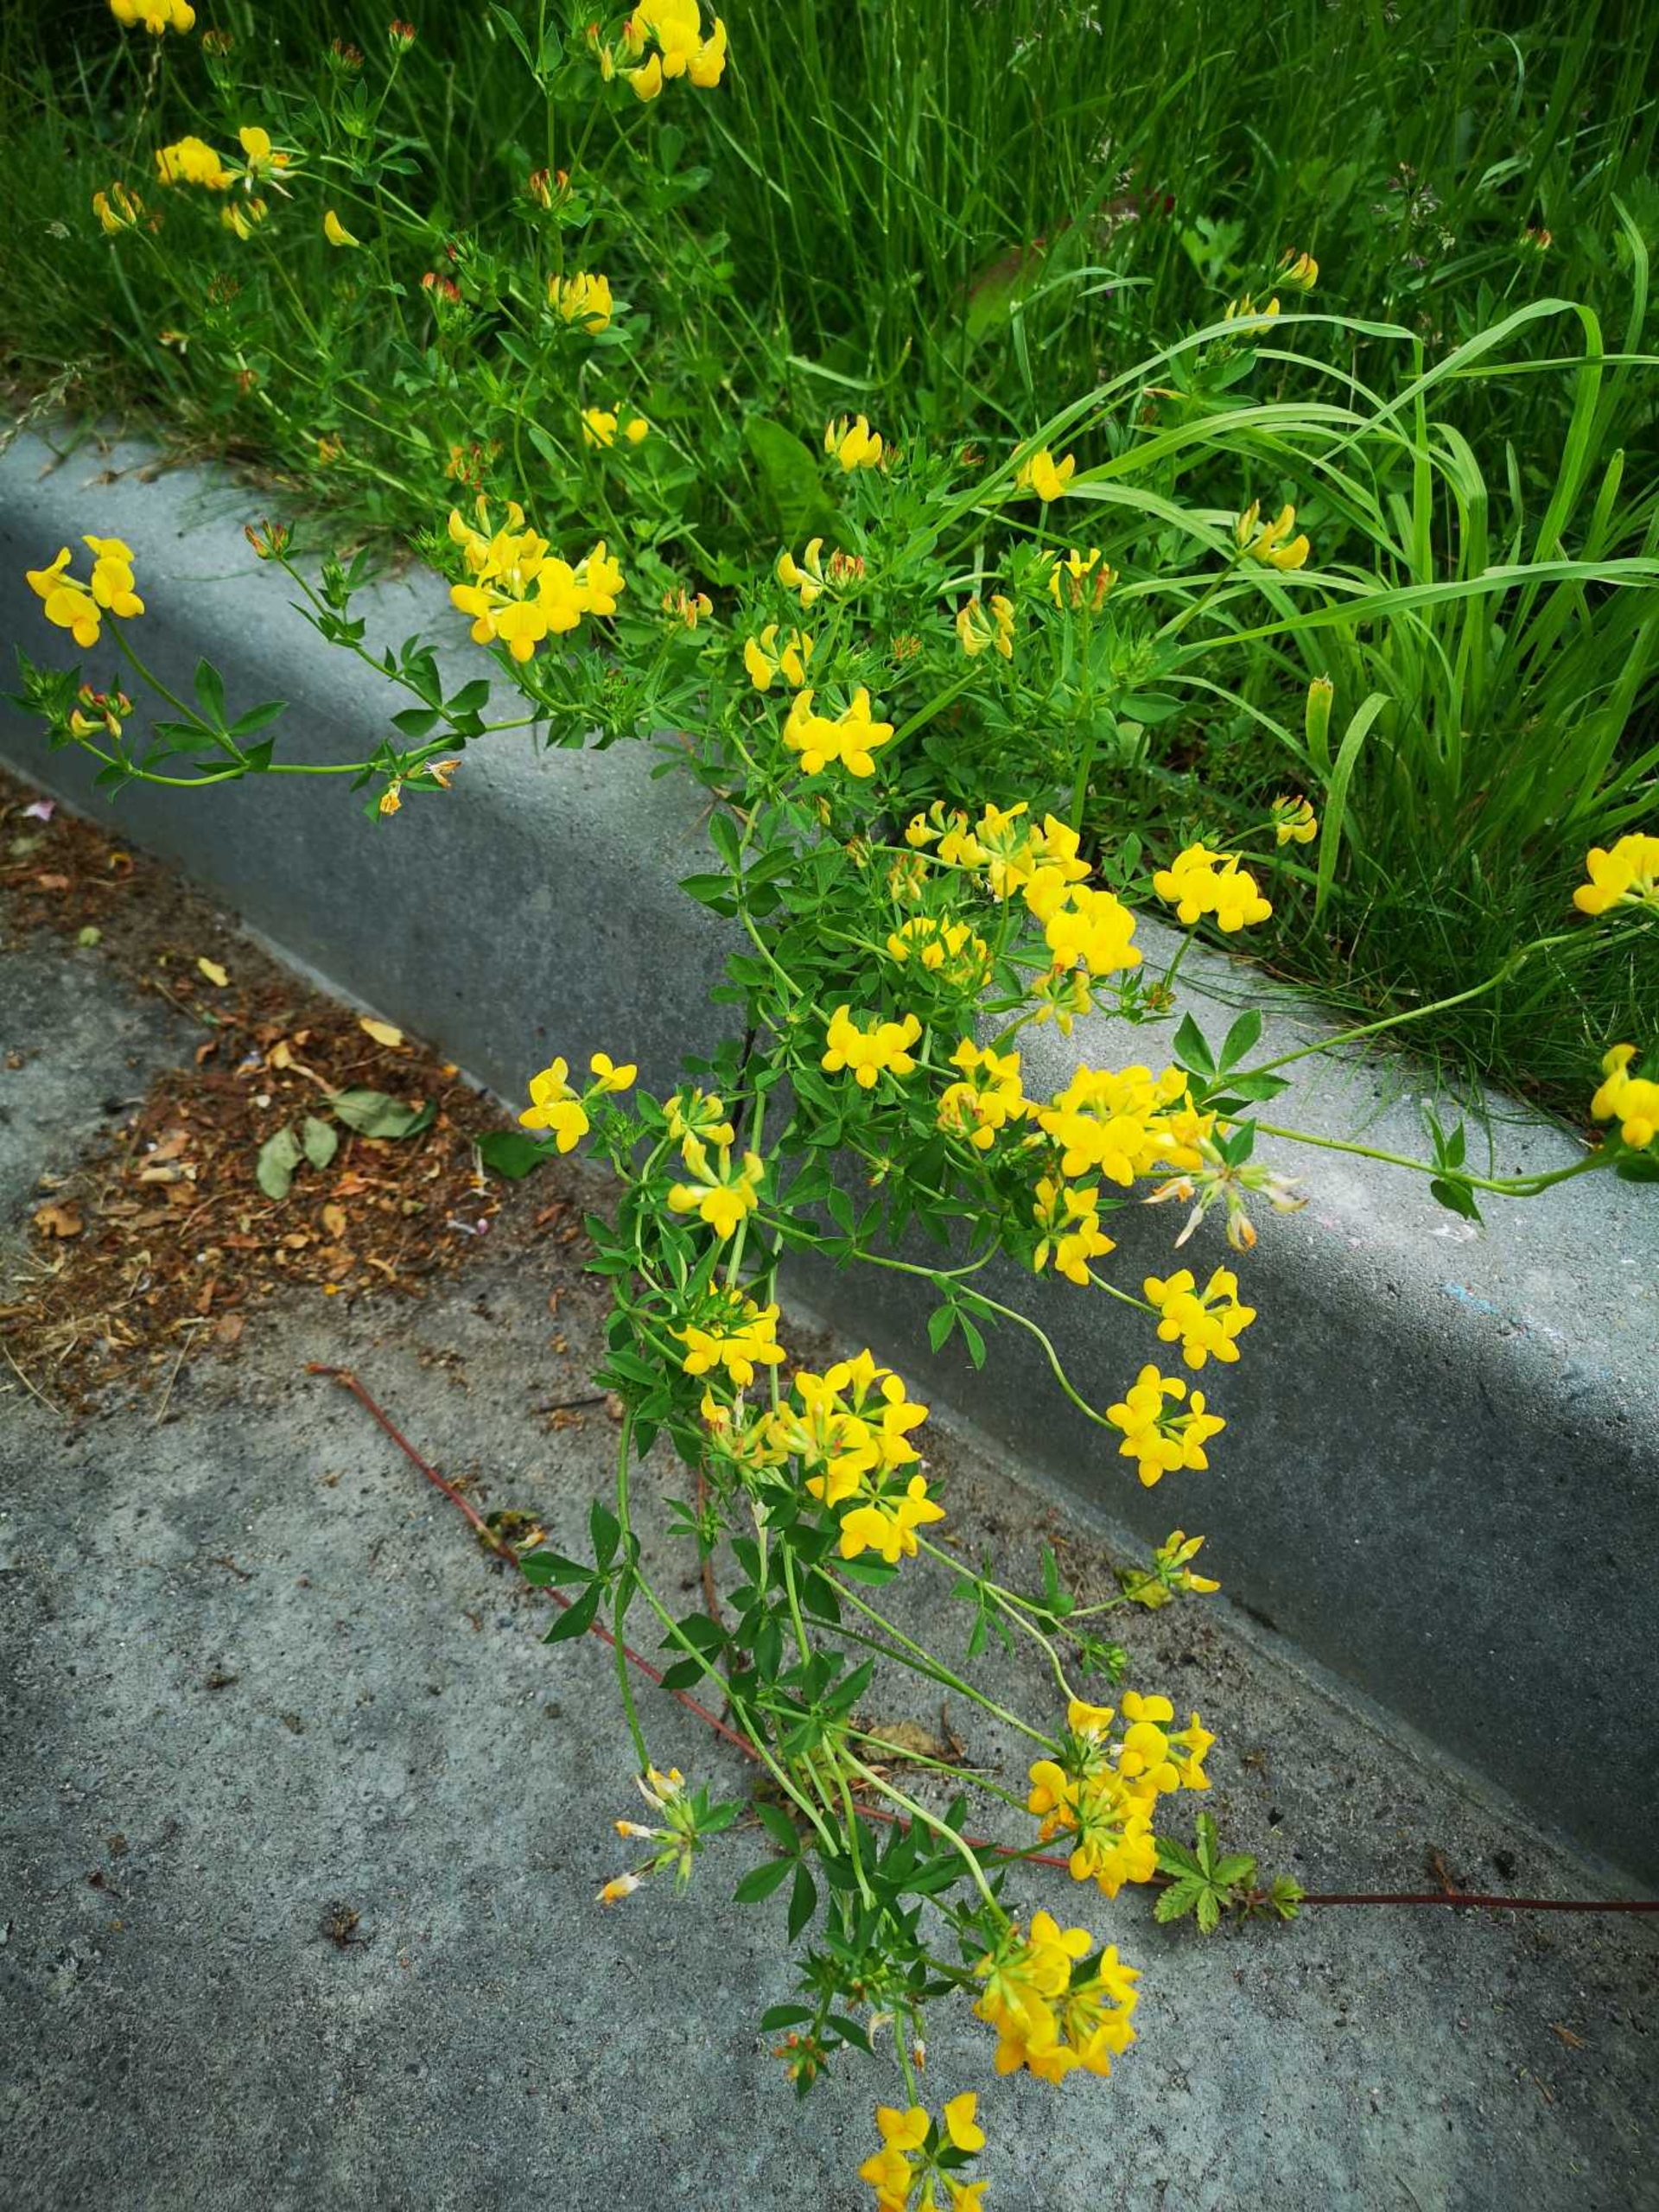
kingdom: Plantae
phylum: Tracheophyta
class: Magnoliopsida
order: Fabales
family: Fabaceae
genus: Lotus
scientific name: Lotus corniculatus
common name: Almindelig kællingetand
